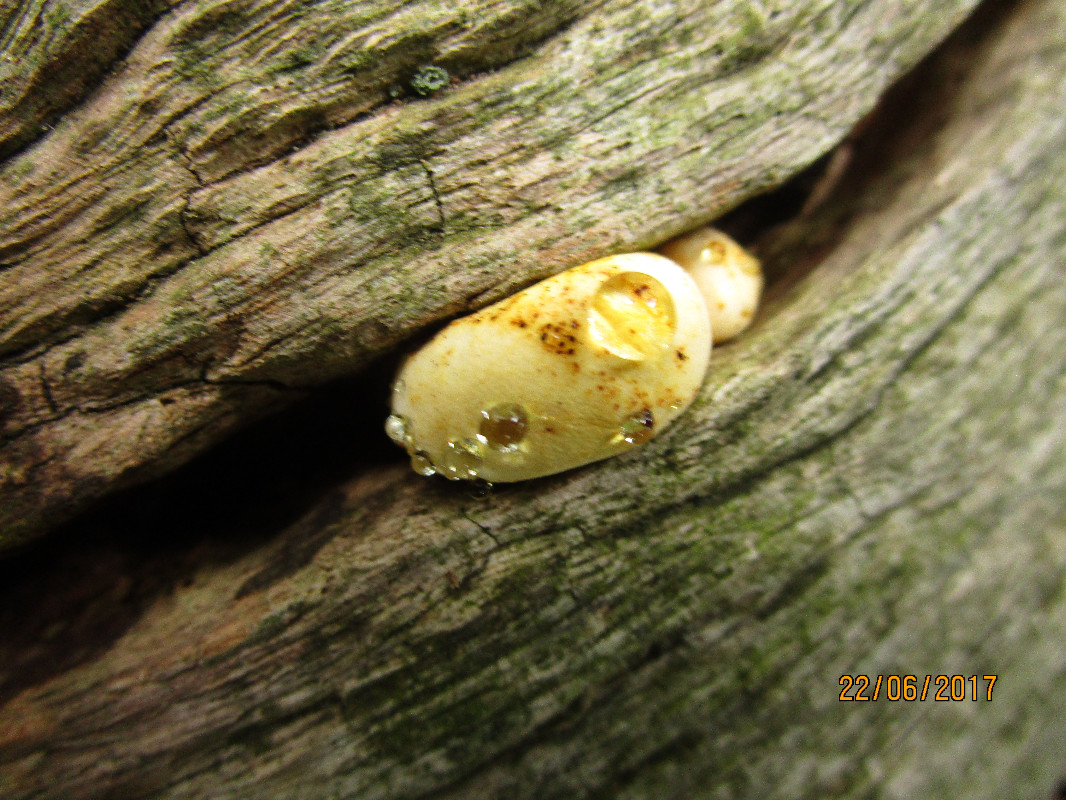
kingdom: Fungi
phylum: Basidiomycota
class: Agaricomycetes
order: Polyporales
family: Fomitopsidaceae
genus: Buglossoporus
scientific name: Buglossoporus quercinus
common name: egetunge
